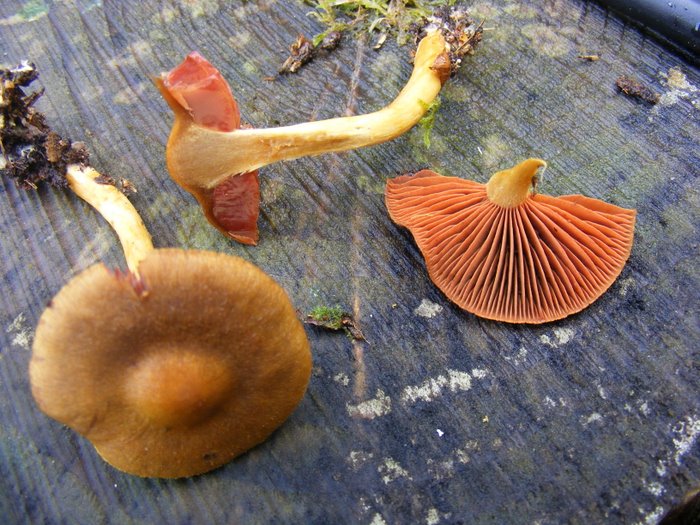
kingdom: Fungi
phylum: Basidiomycota
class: Agaricomycetes
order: Agaricales
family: Cortinariaceae
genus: Cortinarius
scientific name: Cortinarius
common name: cinnoberbladet slørhat
